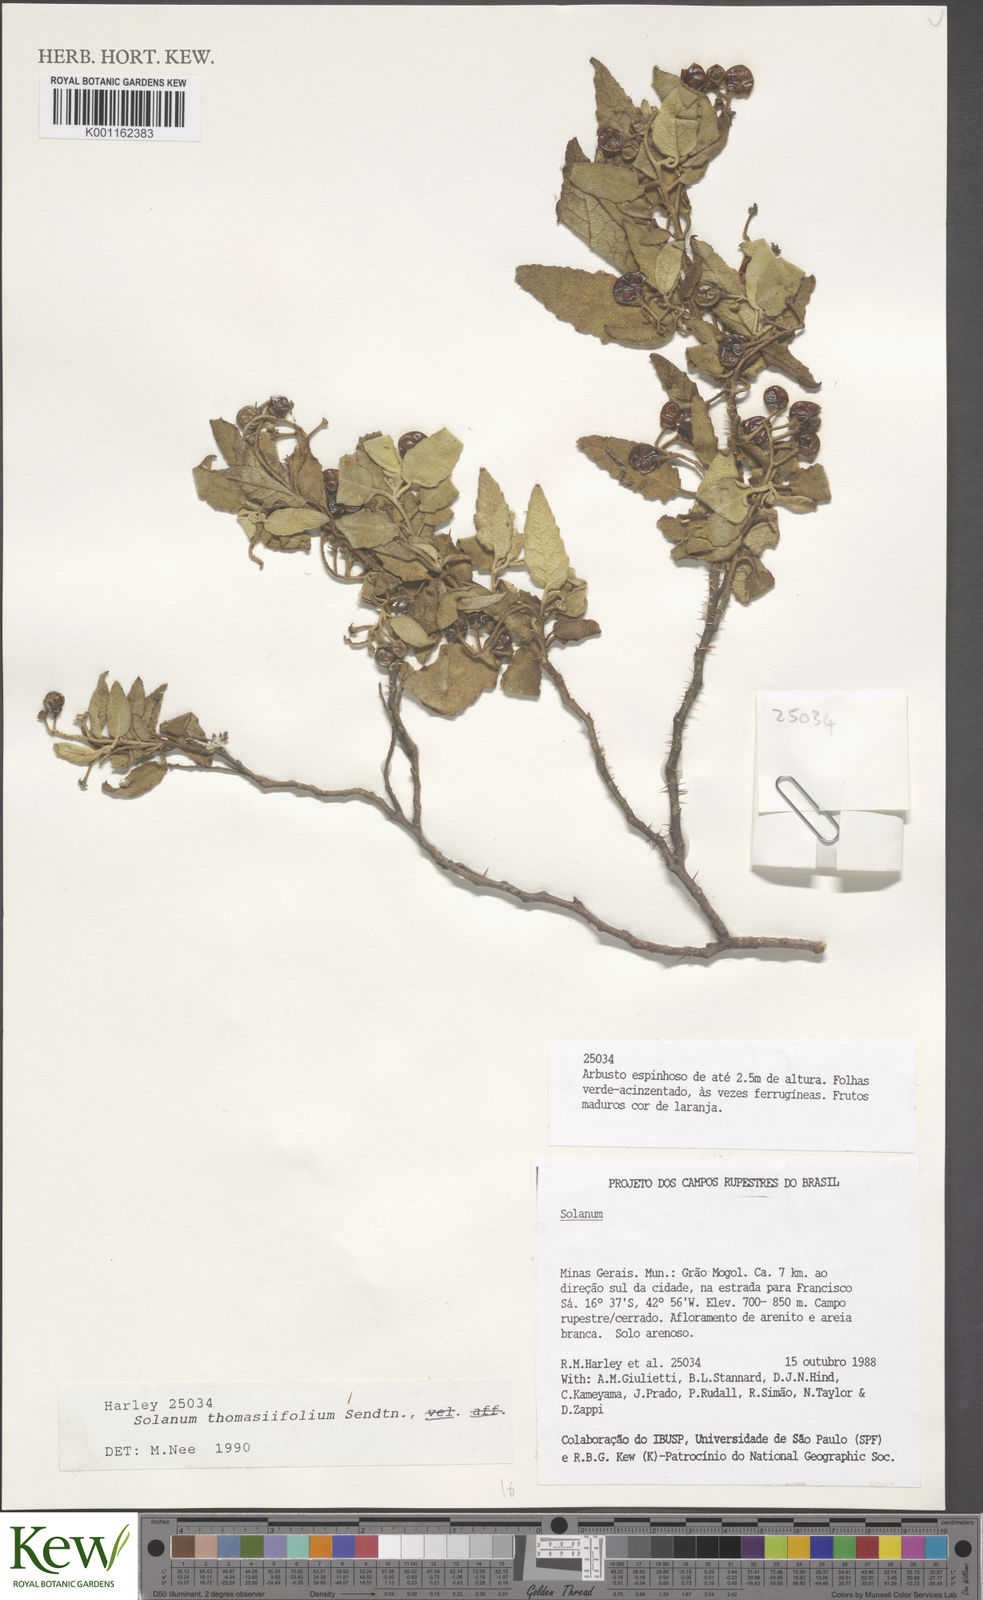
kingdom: Plantae
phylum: Tracheophyta
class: Magnoliopsida
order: Solanales
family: Solanaceae
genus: Solanum
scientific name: Solanum thomasiifolium
